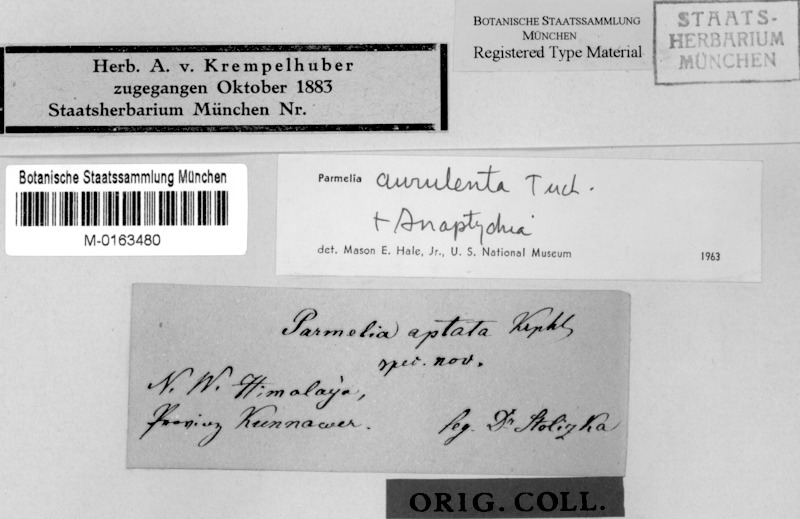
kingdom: Fungi
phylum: Ascomycota
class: Lecanoromycetes
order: Lecanorales
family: Parmeliaceae
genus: Myelochroa
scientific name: Myelochroa aurulenta
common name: Powdery axil-bristle lichen
